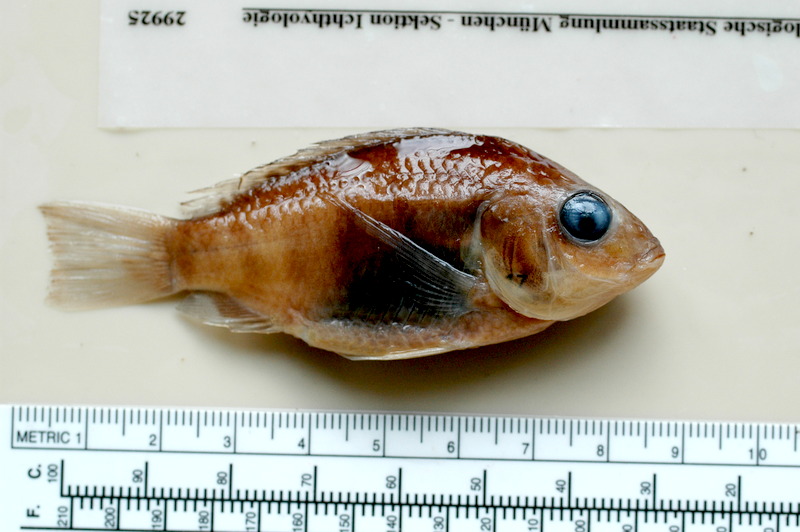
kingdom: Animalia
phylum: Chordata
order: Perciformes
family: Cichlidae
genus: Sarotherodon
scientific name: Sarotherodon knauerae
